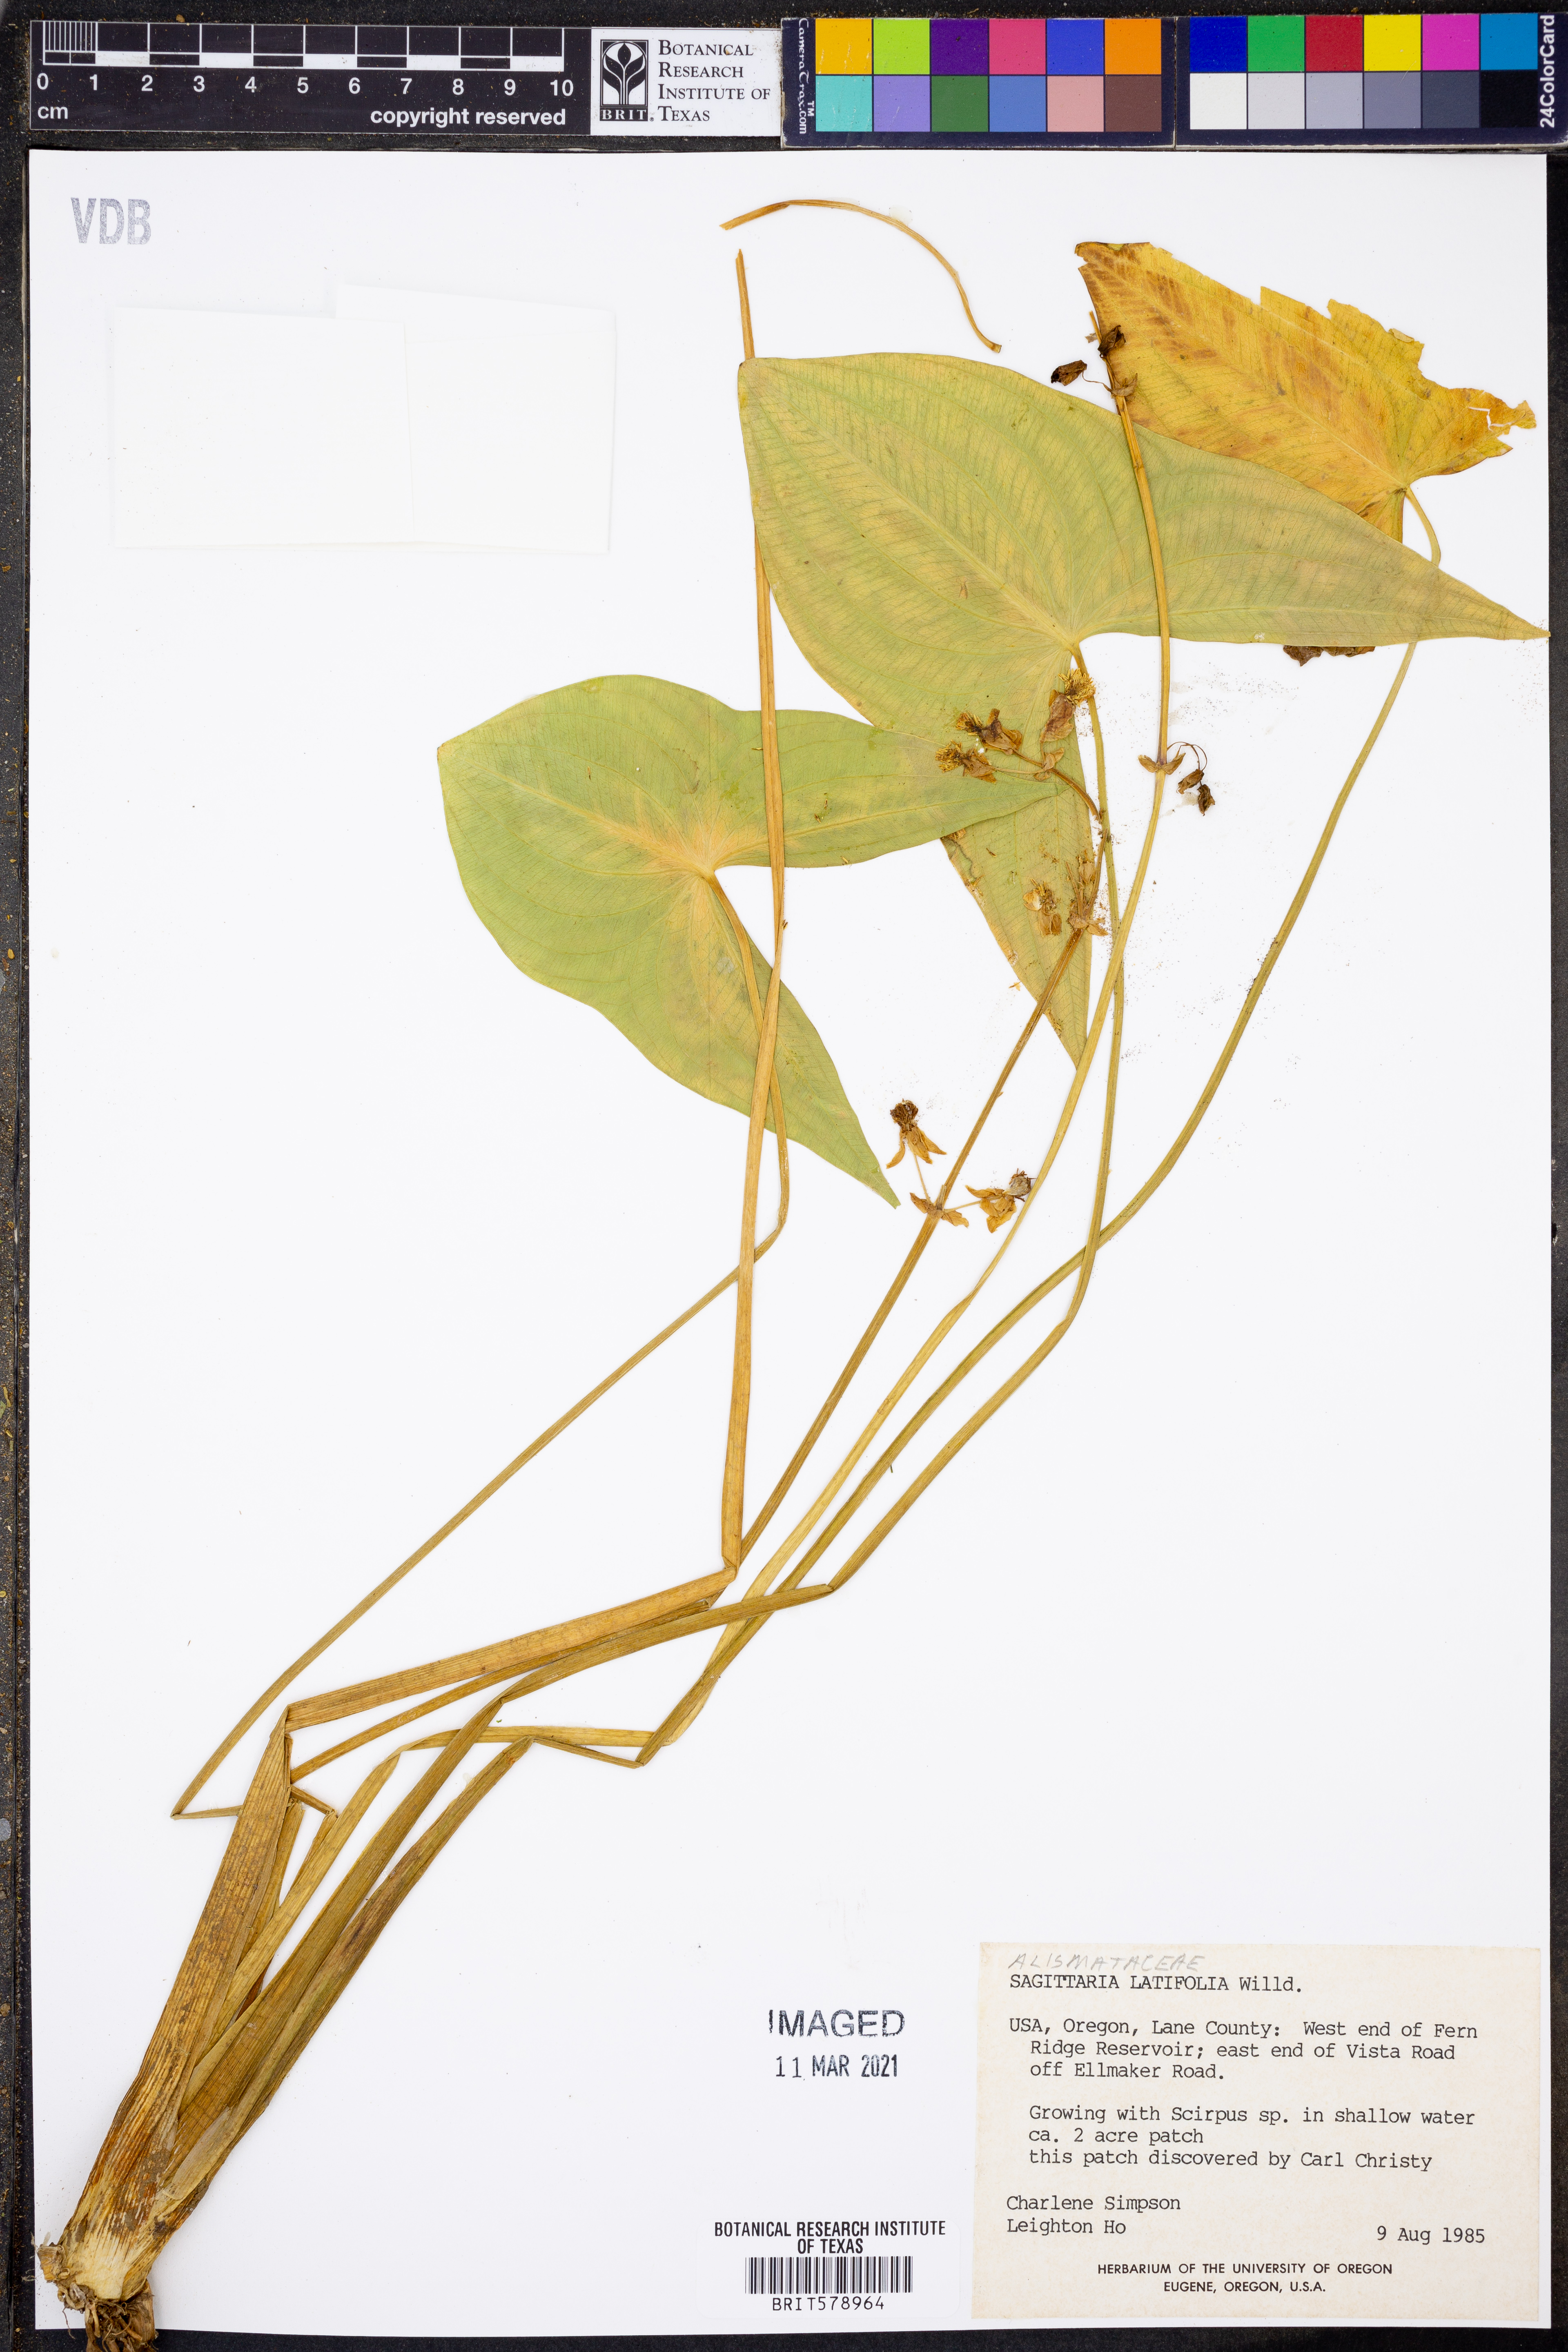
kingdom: Plantae
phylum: Tracheophyta
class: Liliopsida
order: Alismatales
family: Alismataceae
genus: Sagittaria
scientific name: Sagittaria latifolia
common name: Duck-potato
